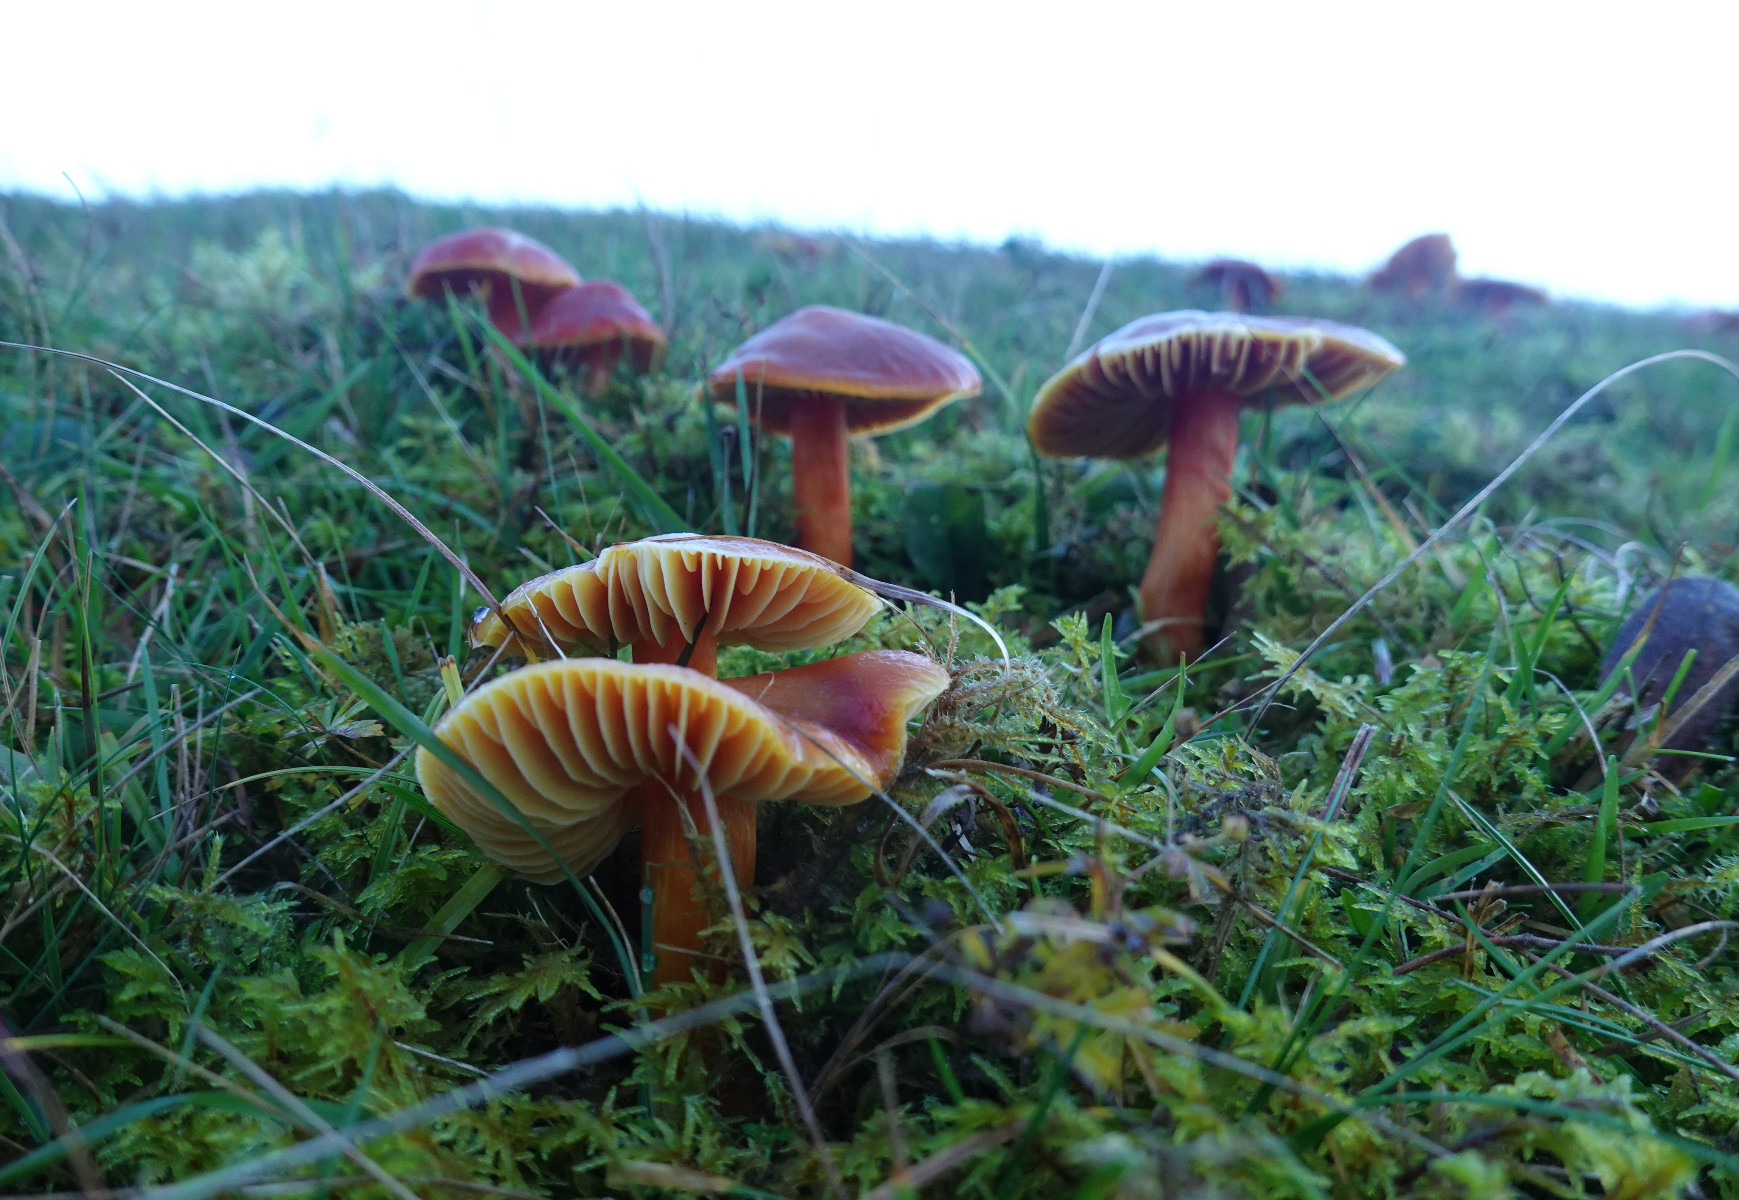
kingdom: Fungi
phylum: Basidiomycota
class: Agaricomycetes
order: Agaricales
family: Hygrophoraceae
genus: Hygrocybe
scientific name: Hygrocybe punicea
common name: skarlagen-vokshat
